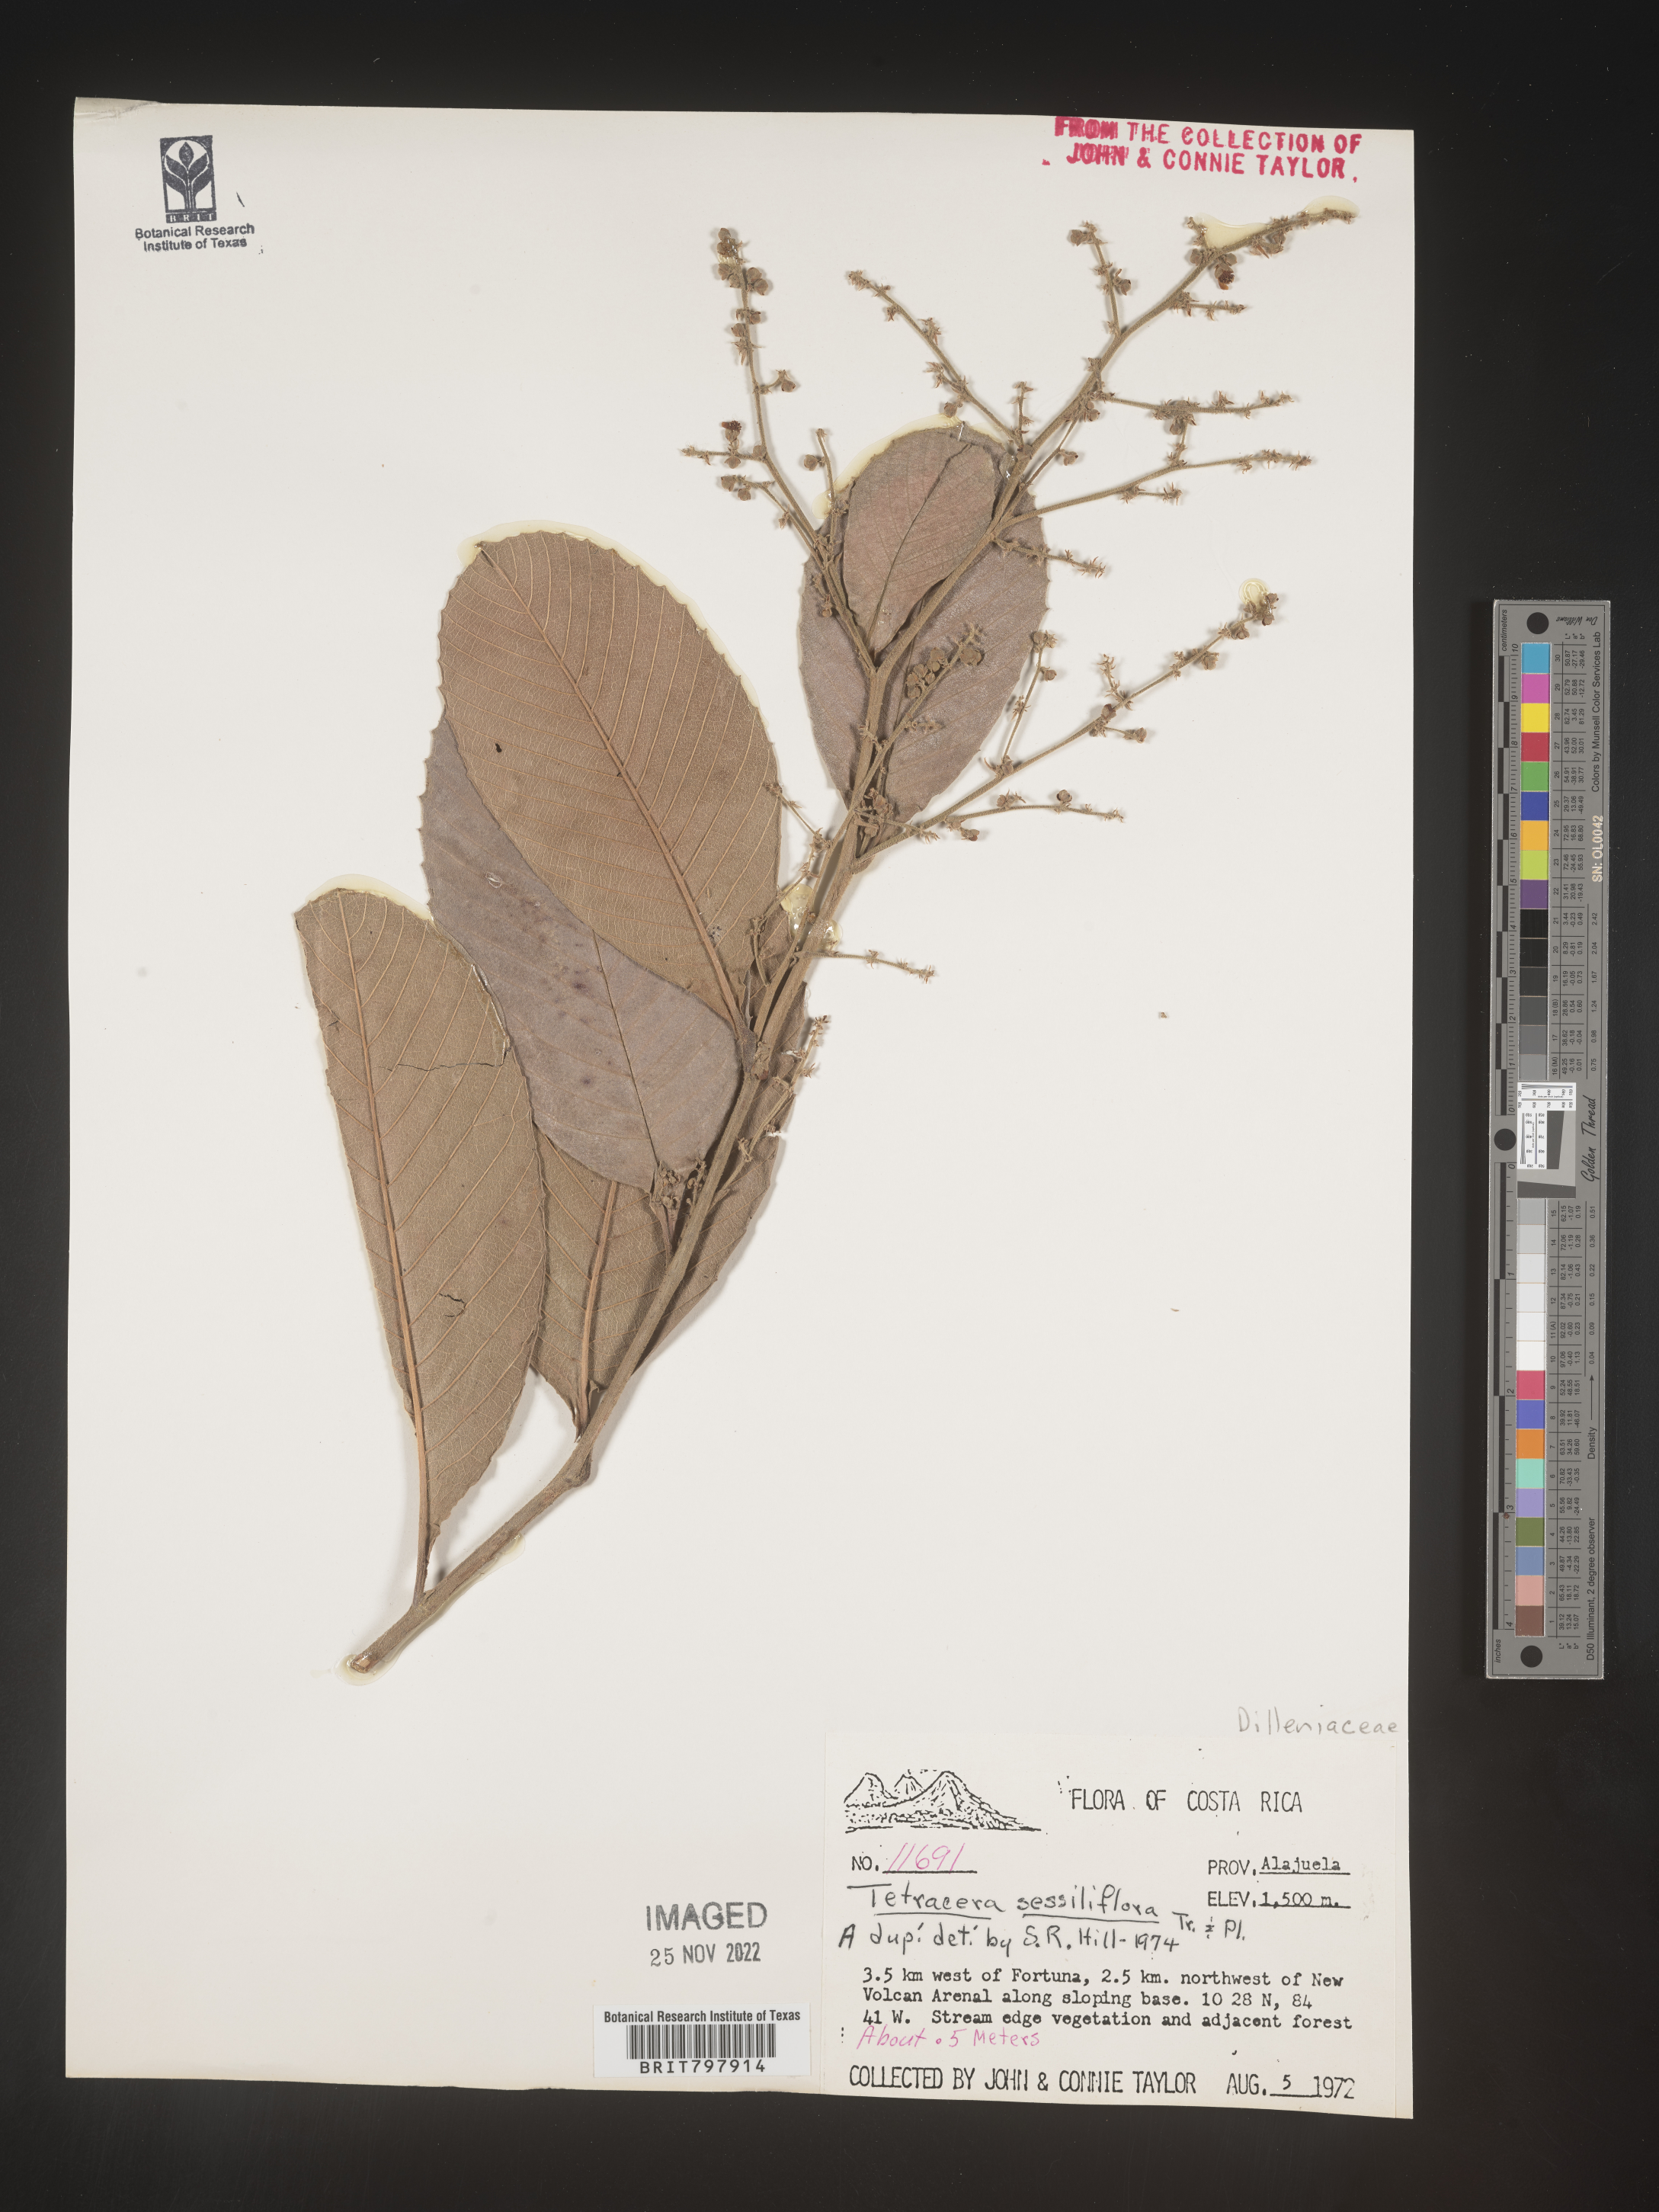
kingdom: Plantae
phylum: Tracheophyta
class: Magnoliopsida
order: Dilleniales
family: Dilleniaceae
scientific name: Dilleniaceae
